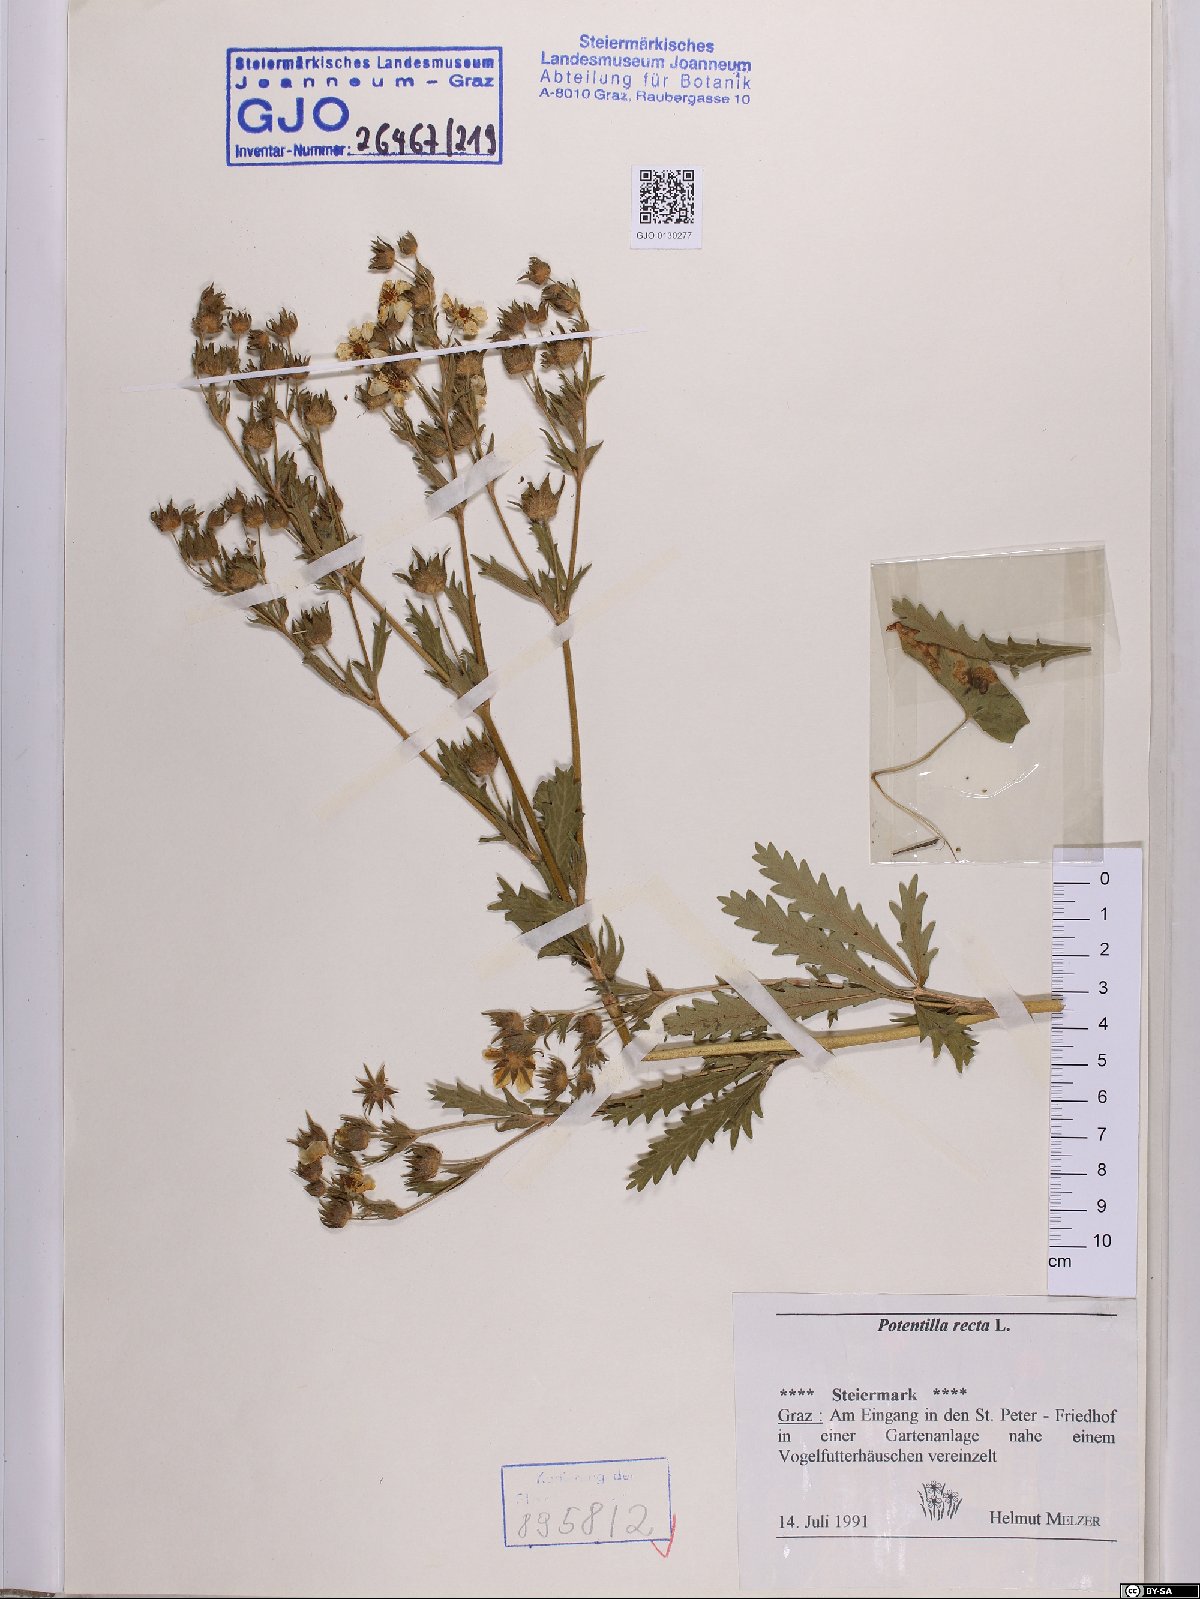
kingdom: Plantae
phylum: Tracheophyta
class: Magnoliopsida
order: Rosales
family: Rosaceae
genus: Potentilla
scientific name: Potentilla recta
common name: Sulphur cinquefoil
